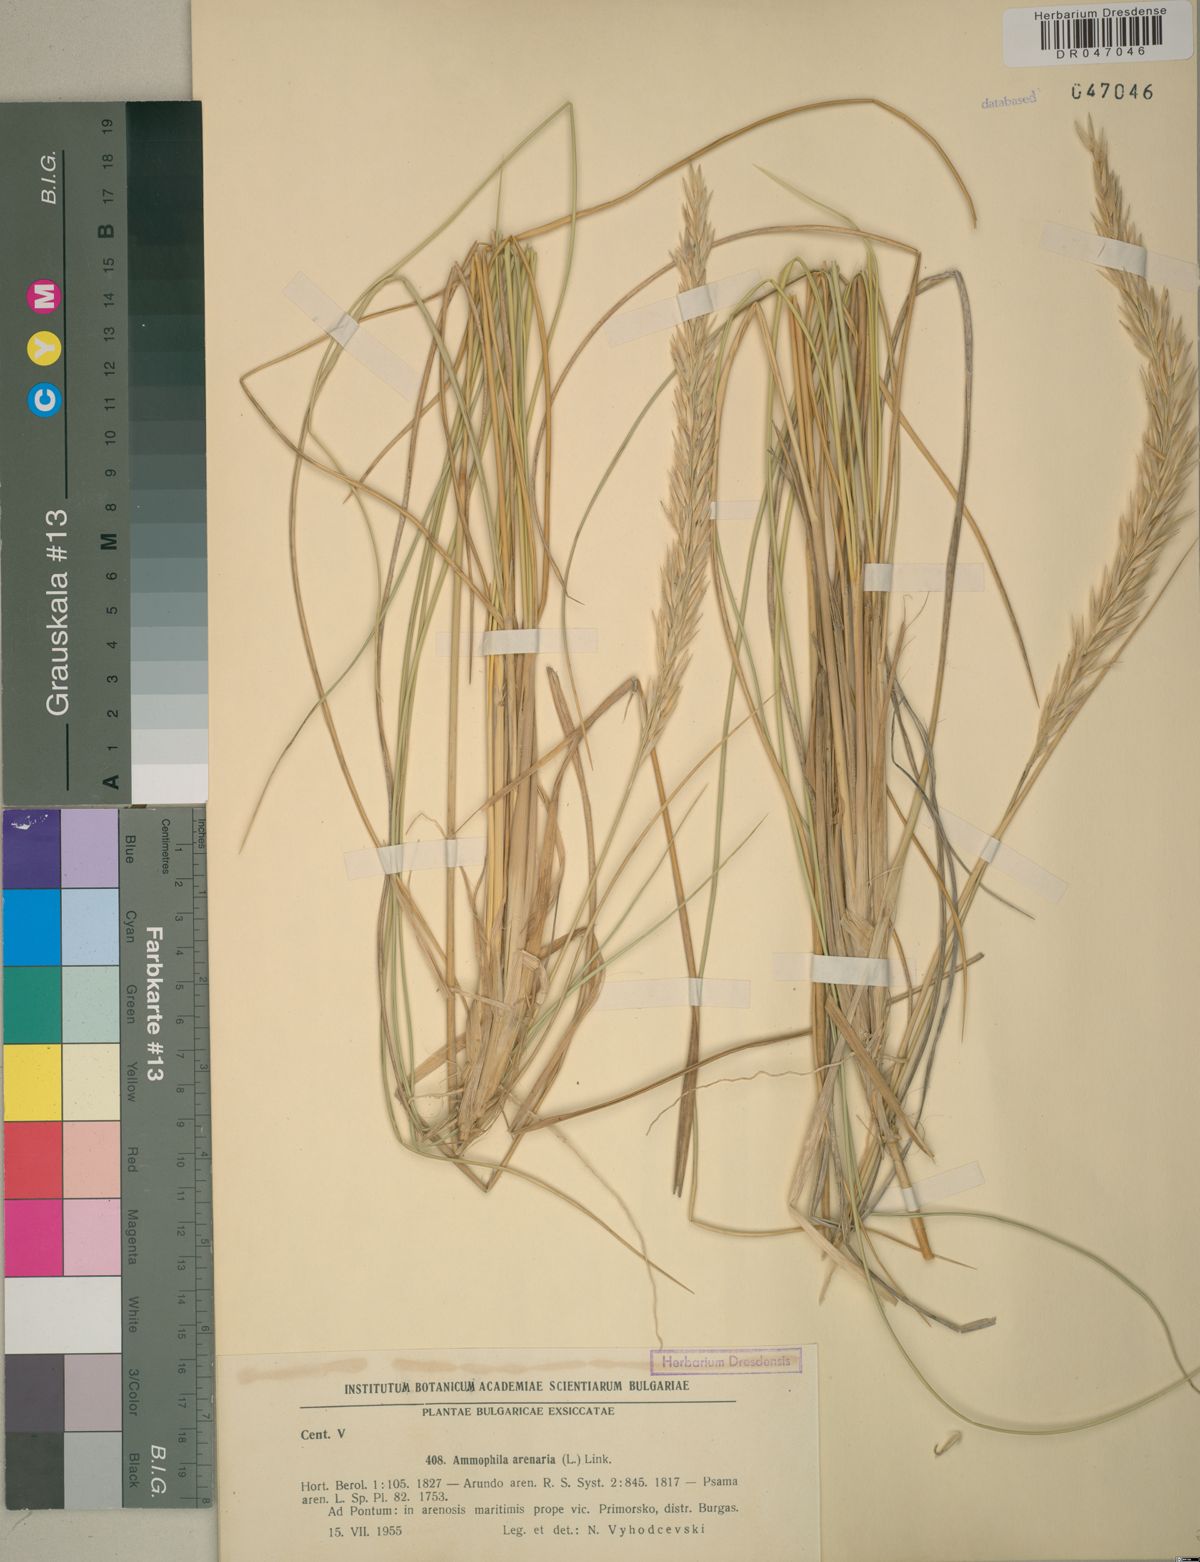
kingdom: Plantae
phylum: Tracheophyta
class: Liliopsida
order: Poales
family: Poaceae
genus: Calamagrostis
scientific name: Calamagrostis arenaria
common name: European beachgrass
